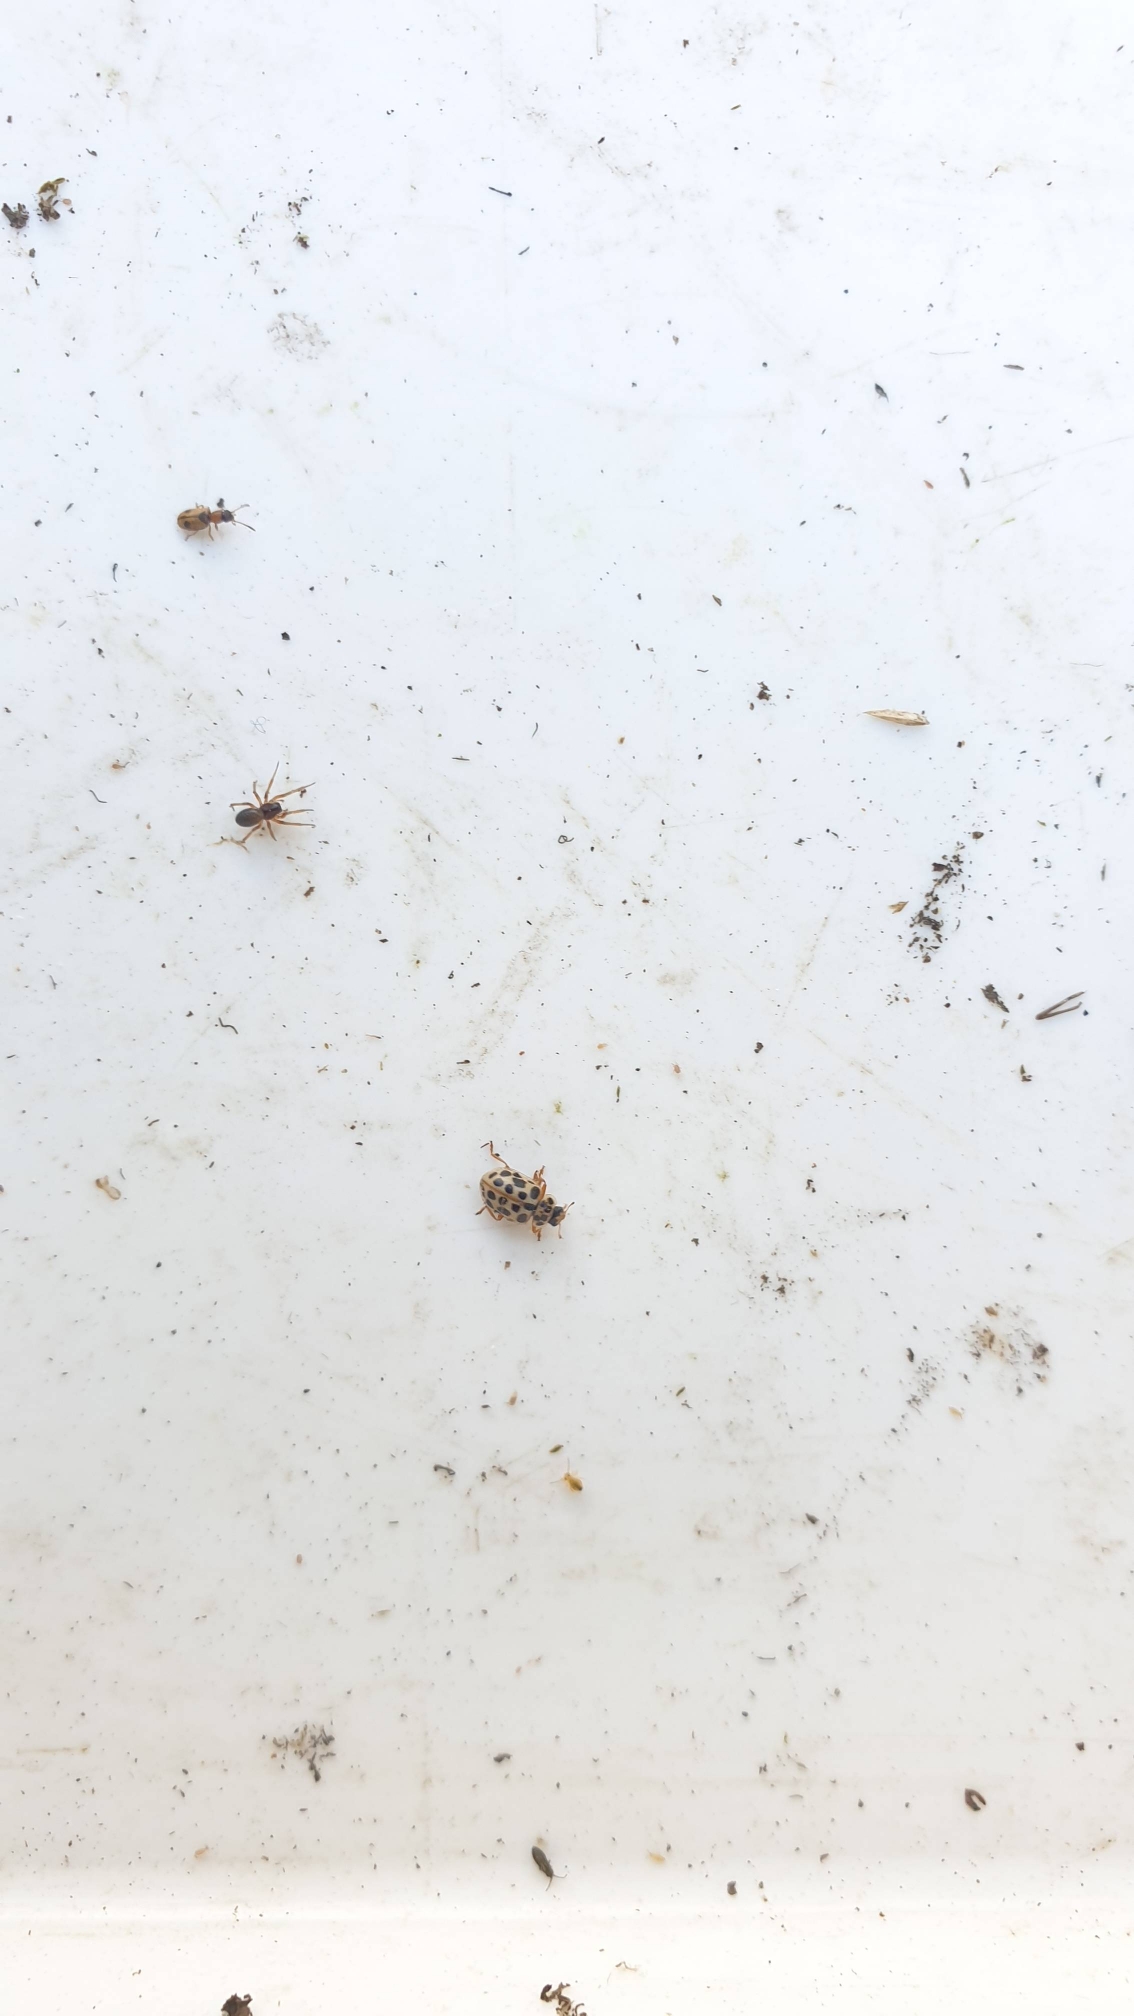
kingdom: Animalia
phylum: Arthropoda
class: Insecta
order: Coleoptera
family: Coccinellidae
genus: Anisosticta
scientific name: Anisosticta novemdecimpunctata
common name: Nittenplettet mariehøne
